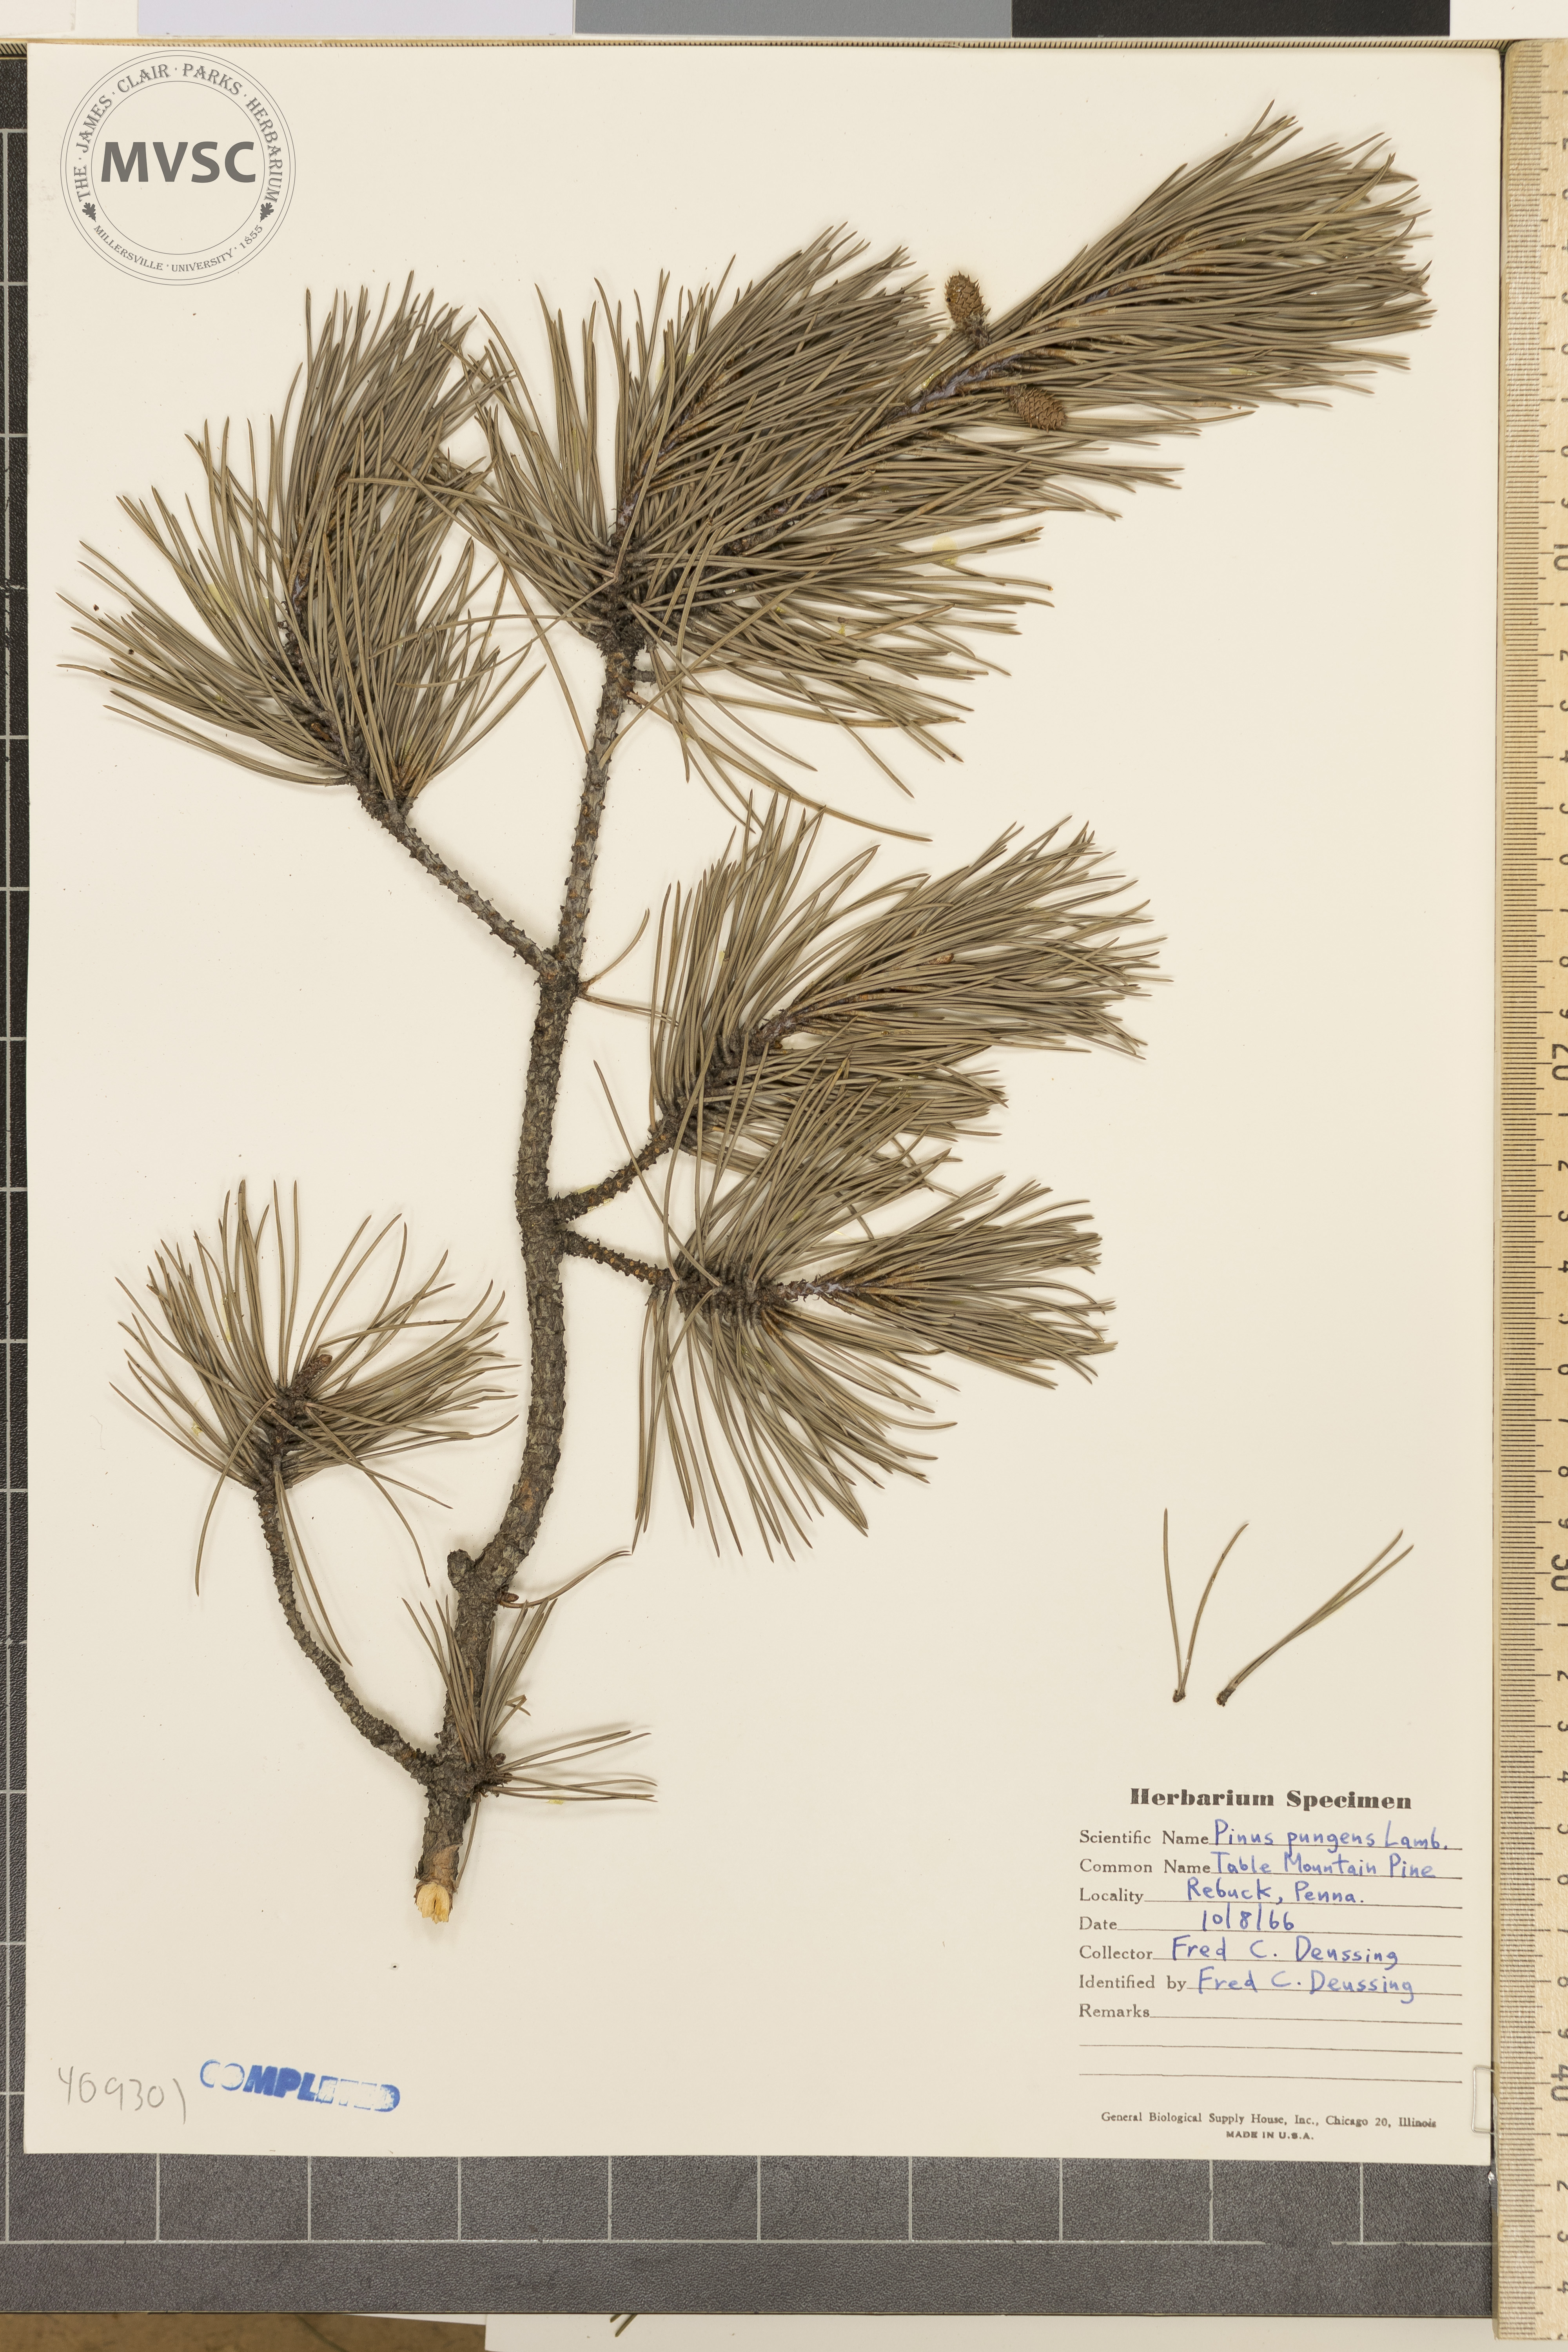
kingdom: Plantae
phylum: Tracheophyta
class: Pinopsida
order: Pinales
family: Pinaceae
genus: Pinus
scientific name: Pinus pungens
